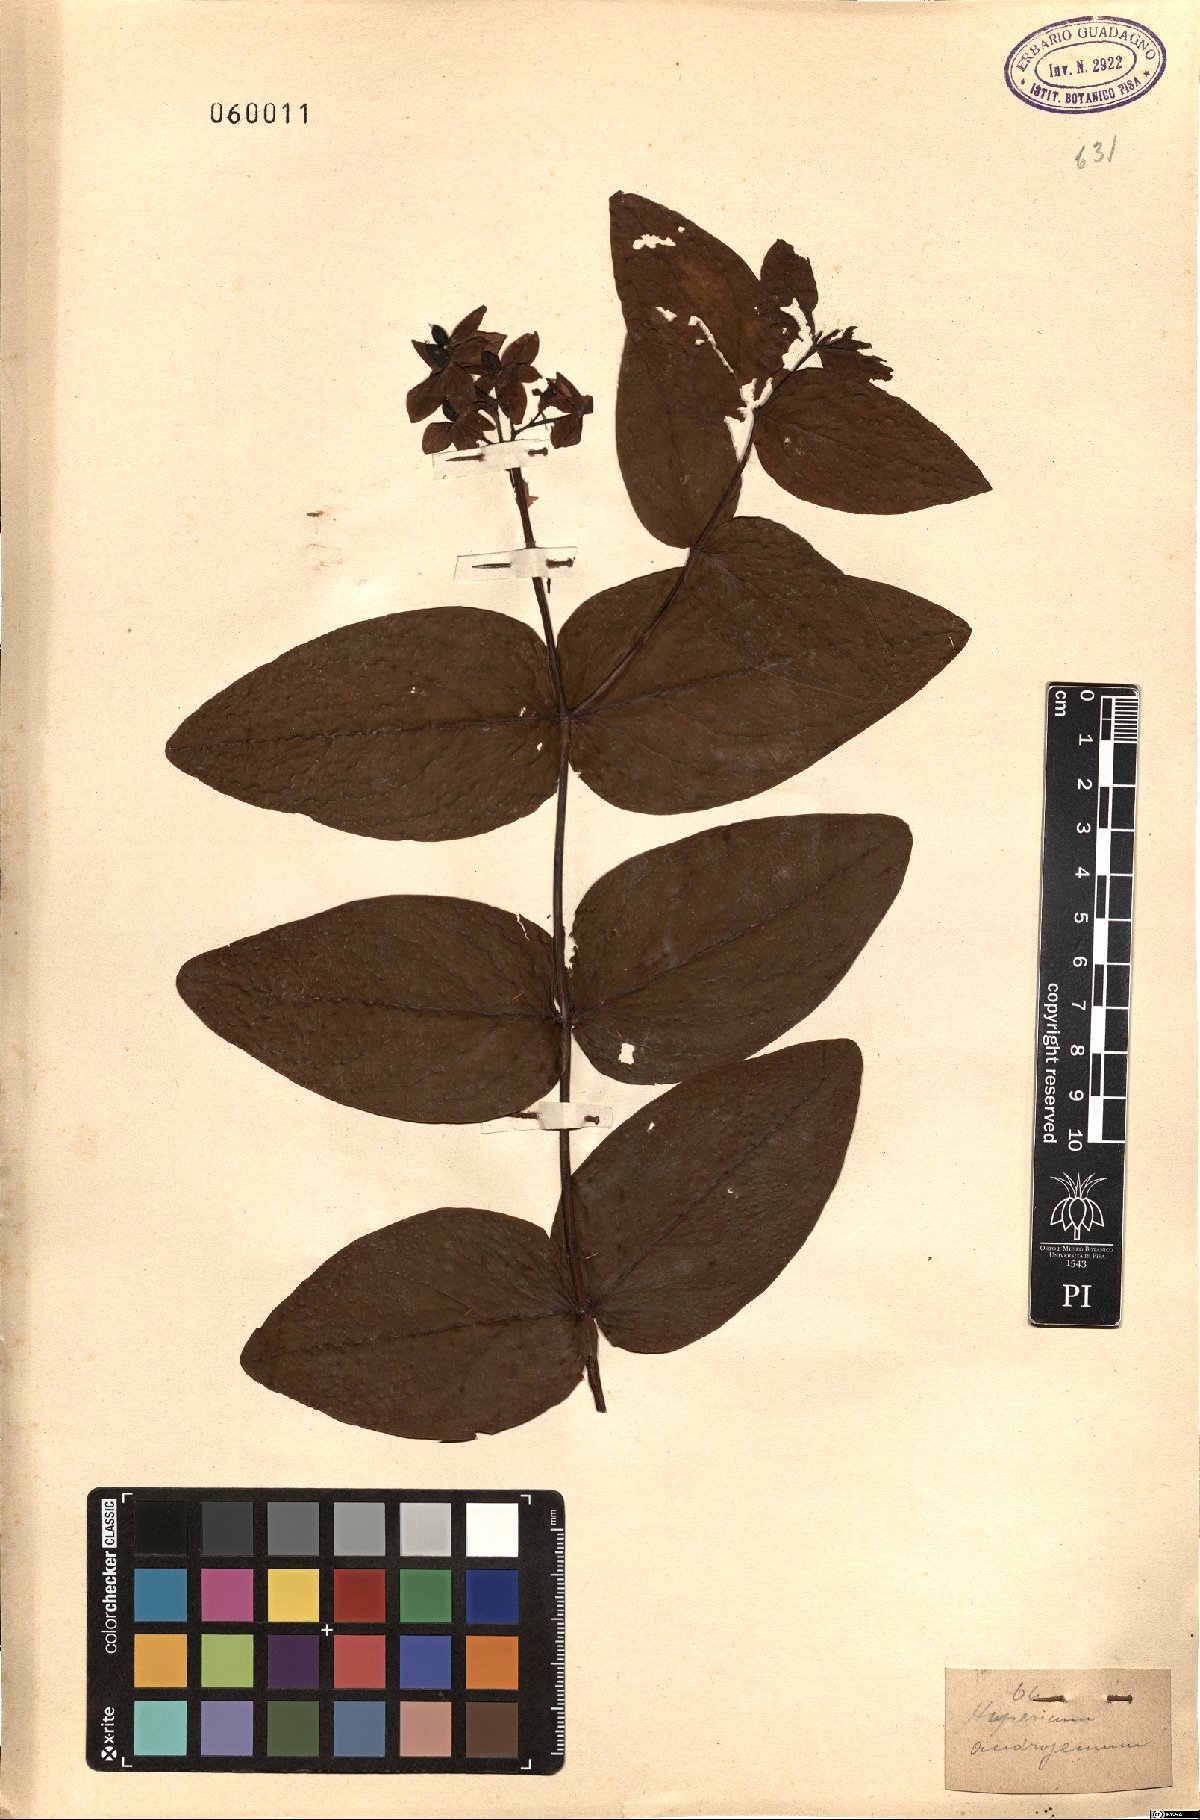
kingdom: Plantae
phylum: Tracheophyta
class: Magnoliopsida
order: Malpighiales
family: Hypericaceae
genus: Hypericum
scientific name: Hypericum androsaemum
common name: Sweet-amber
